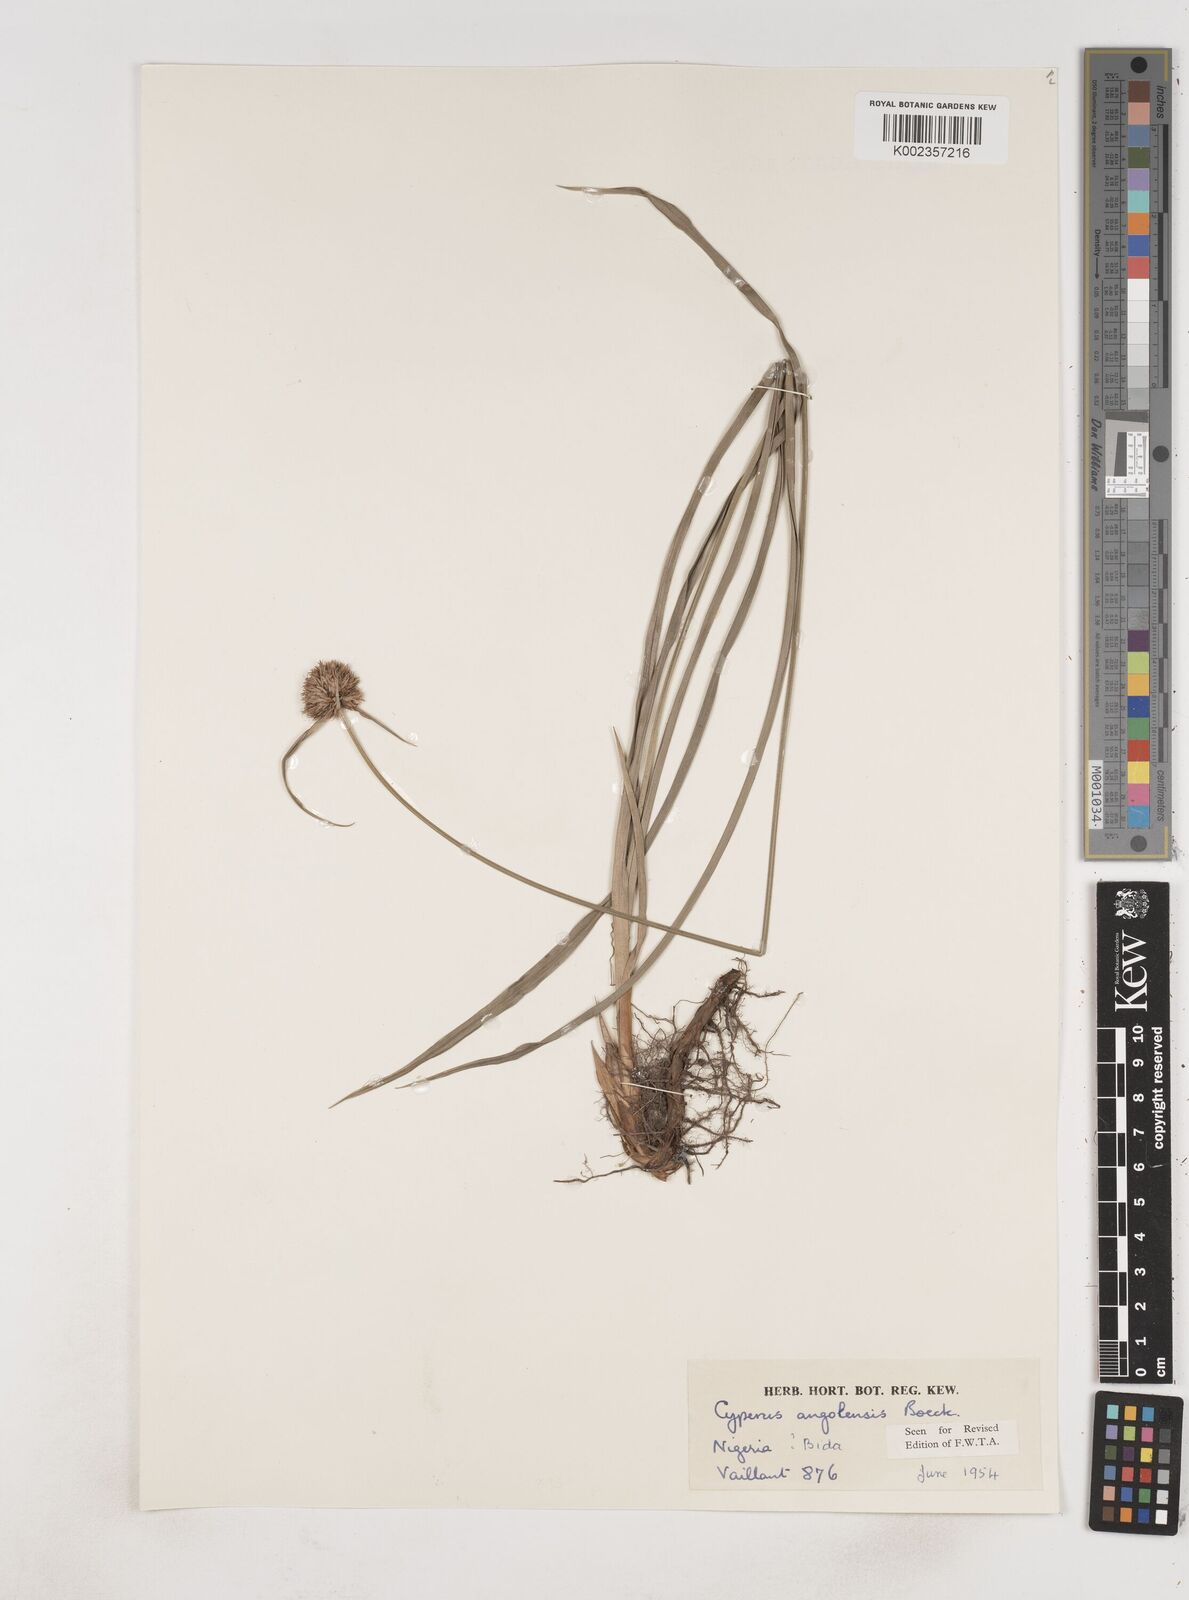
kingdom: Plantae
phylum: Tracheophyta
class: Liliopsida
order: Poales
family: Cyperaceae
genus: Cyperus
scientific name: Cyperus angolensis
